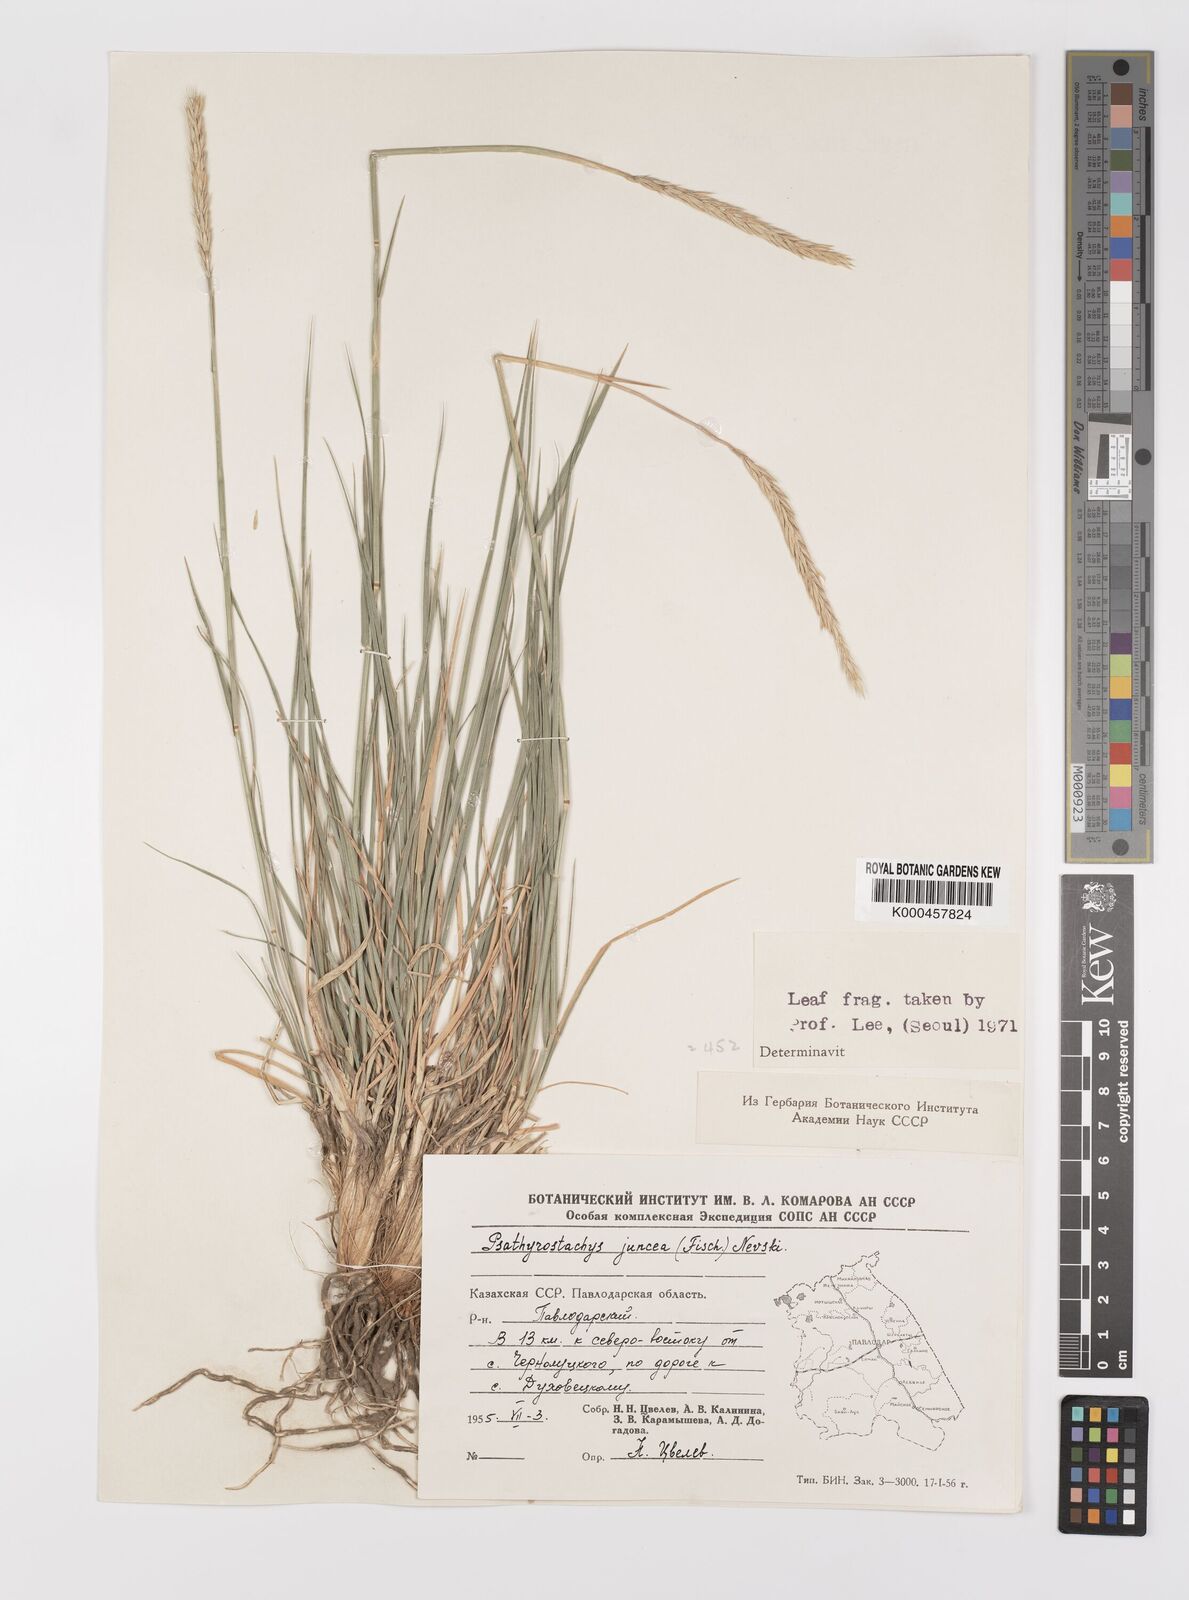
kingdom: Plantae
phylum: Tracheophyta
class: Liliopsida
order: Poales
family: Poaceae
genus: Psathyrostachys
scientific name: Psathyrostachys juncea
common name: Russian wildrye
